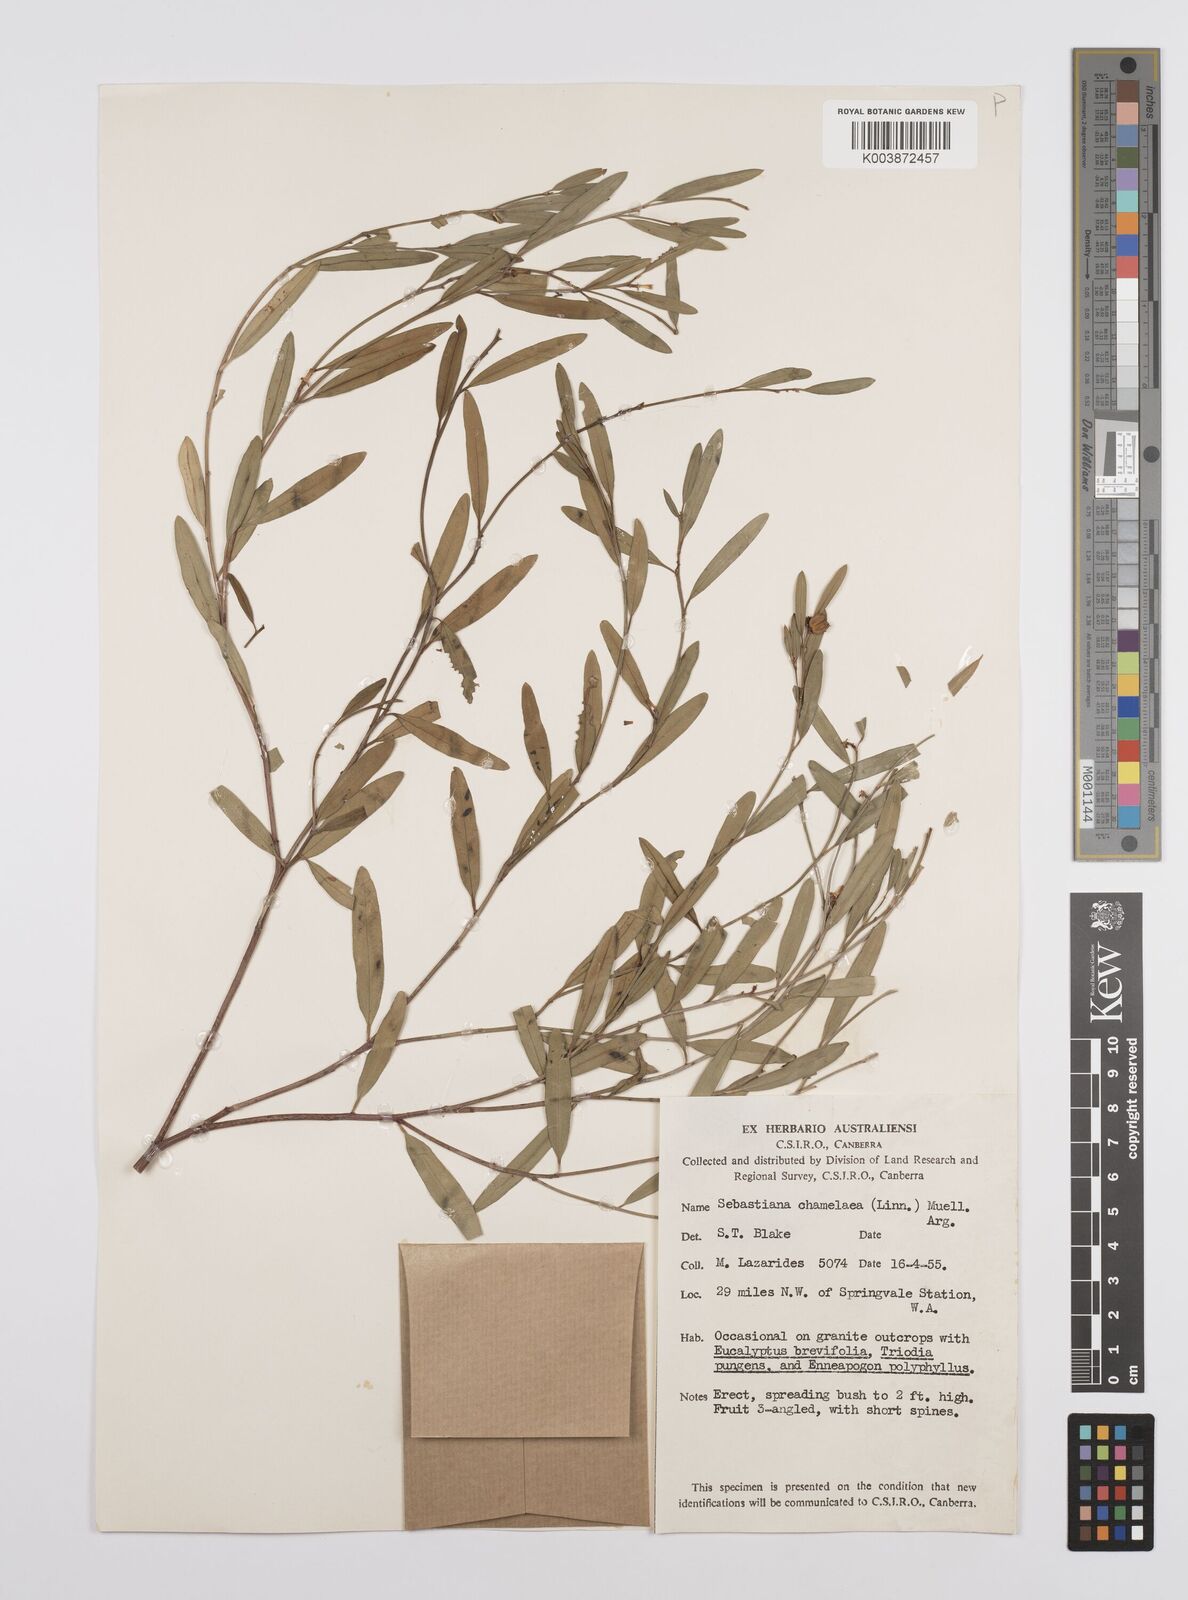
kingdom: Plantae
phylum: Tracheophyta
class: Magnoliopsida
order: Malpighiales
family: Euphorbiaceae
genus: Microstachys
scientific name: Microstachys chamaelea
